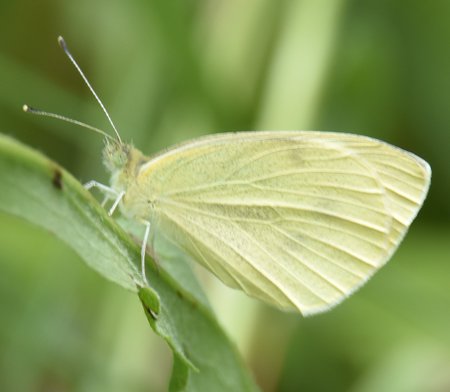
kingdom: Animalia
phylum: Arthropoda
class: Insecta
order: Lepidoptera
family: Pieridae
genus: Pieris
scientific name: Pieris rapae
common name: Cabbage White
